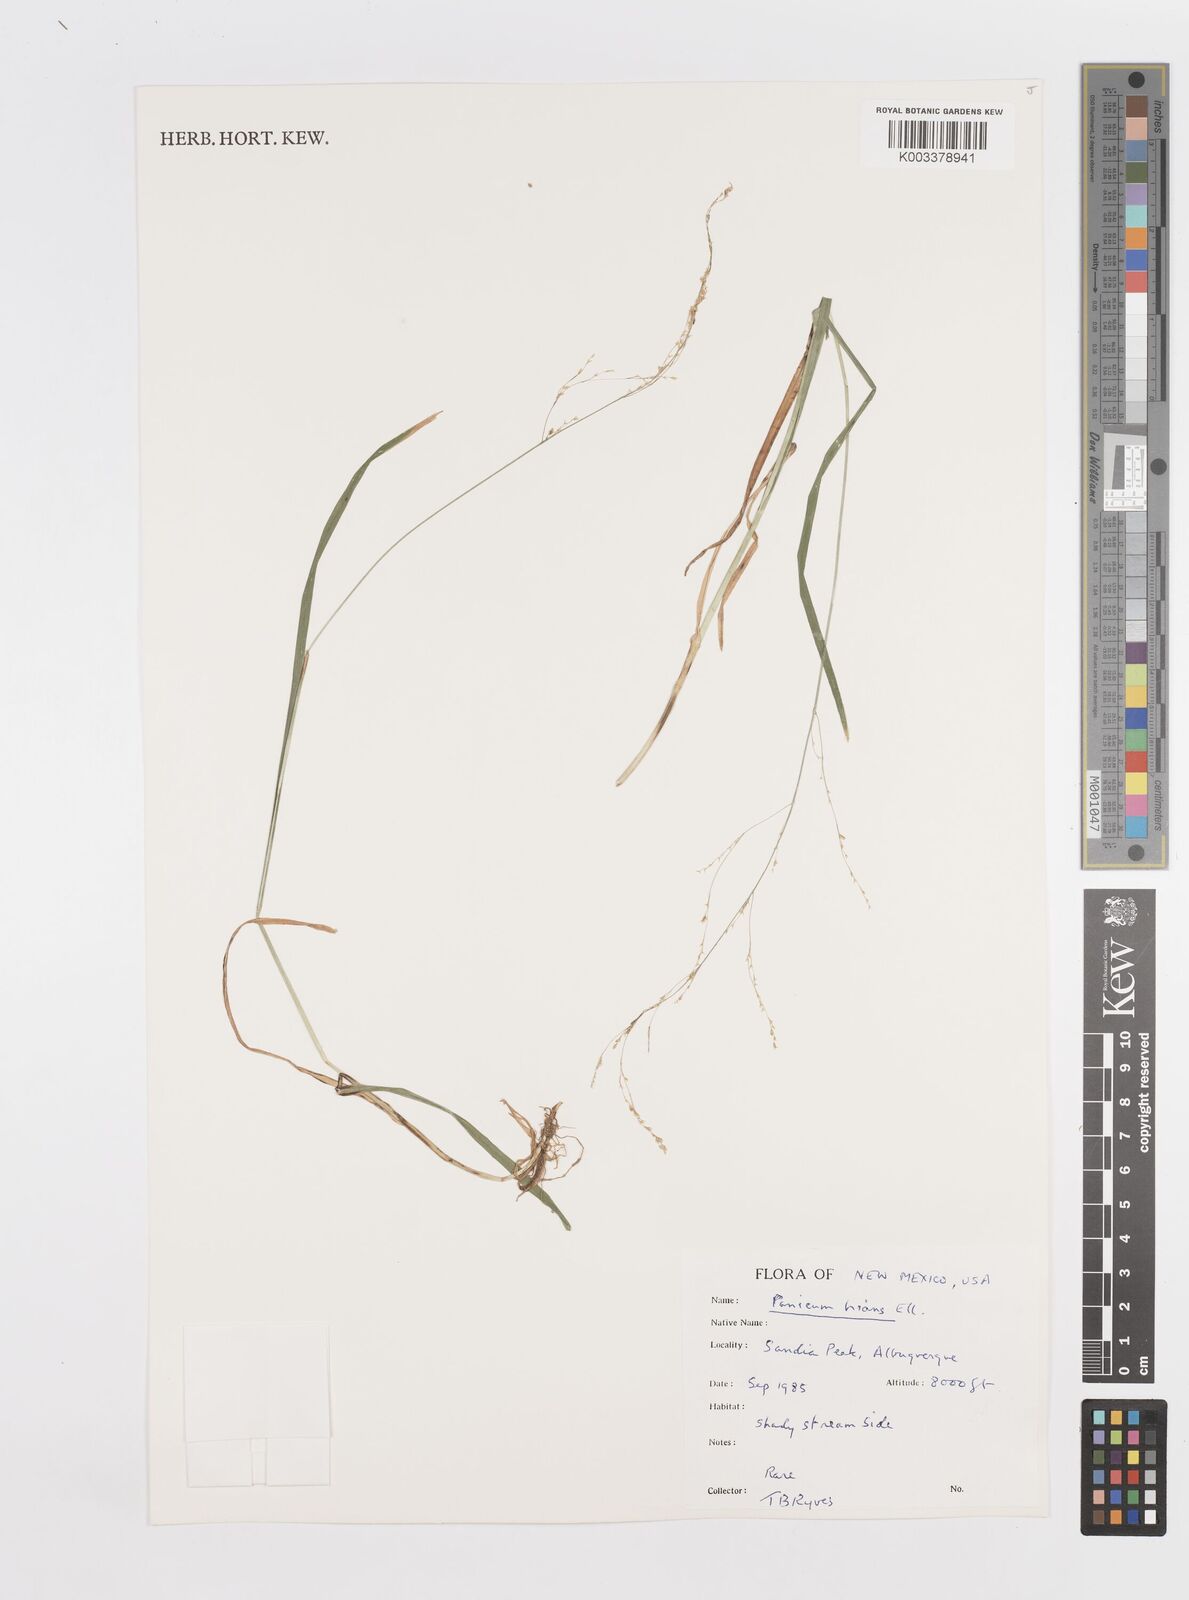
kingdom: Plantae
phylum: Tracheophyta
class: Liliopsida
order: Poales
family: Poaceae
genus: Steinchisma
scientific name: Steinchisma hians
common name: Gaping panic grass
